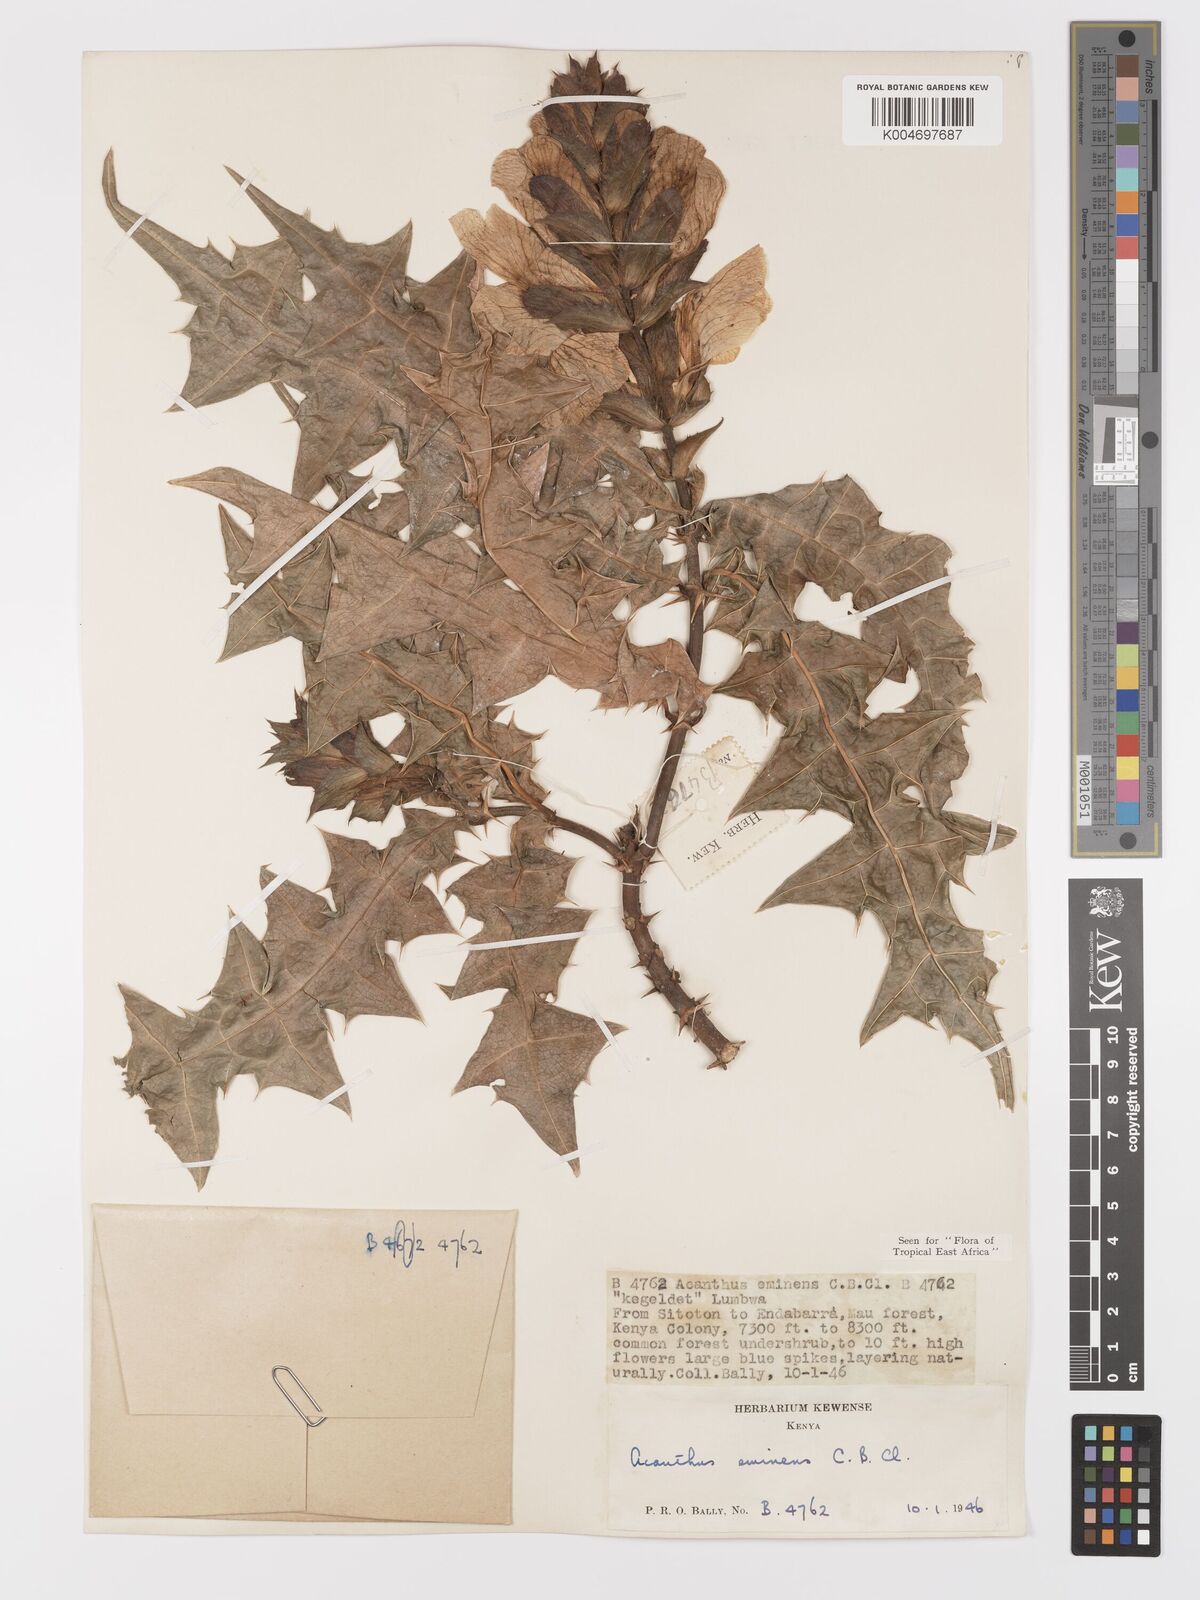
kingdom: Plantae
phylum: Tracheophyta
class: Magnoliopsida
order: Lamiales
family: Acanthaceae
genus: Acanthus
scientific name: Acanthus eminens
